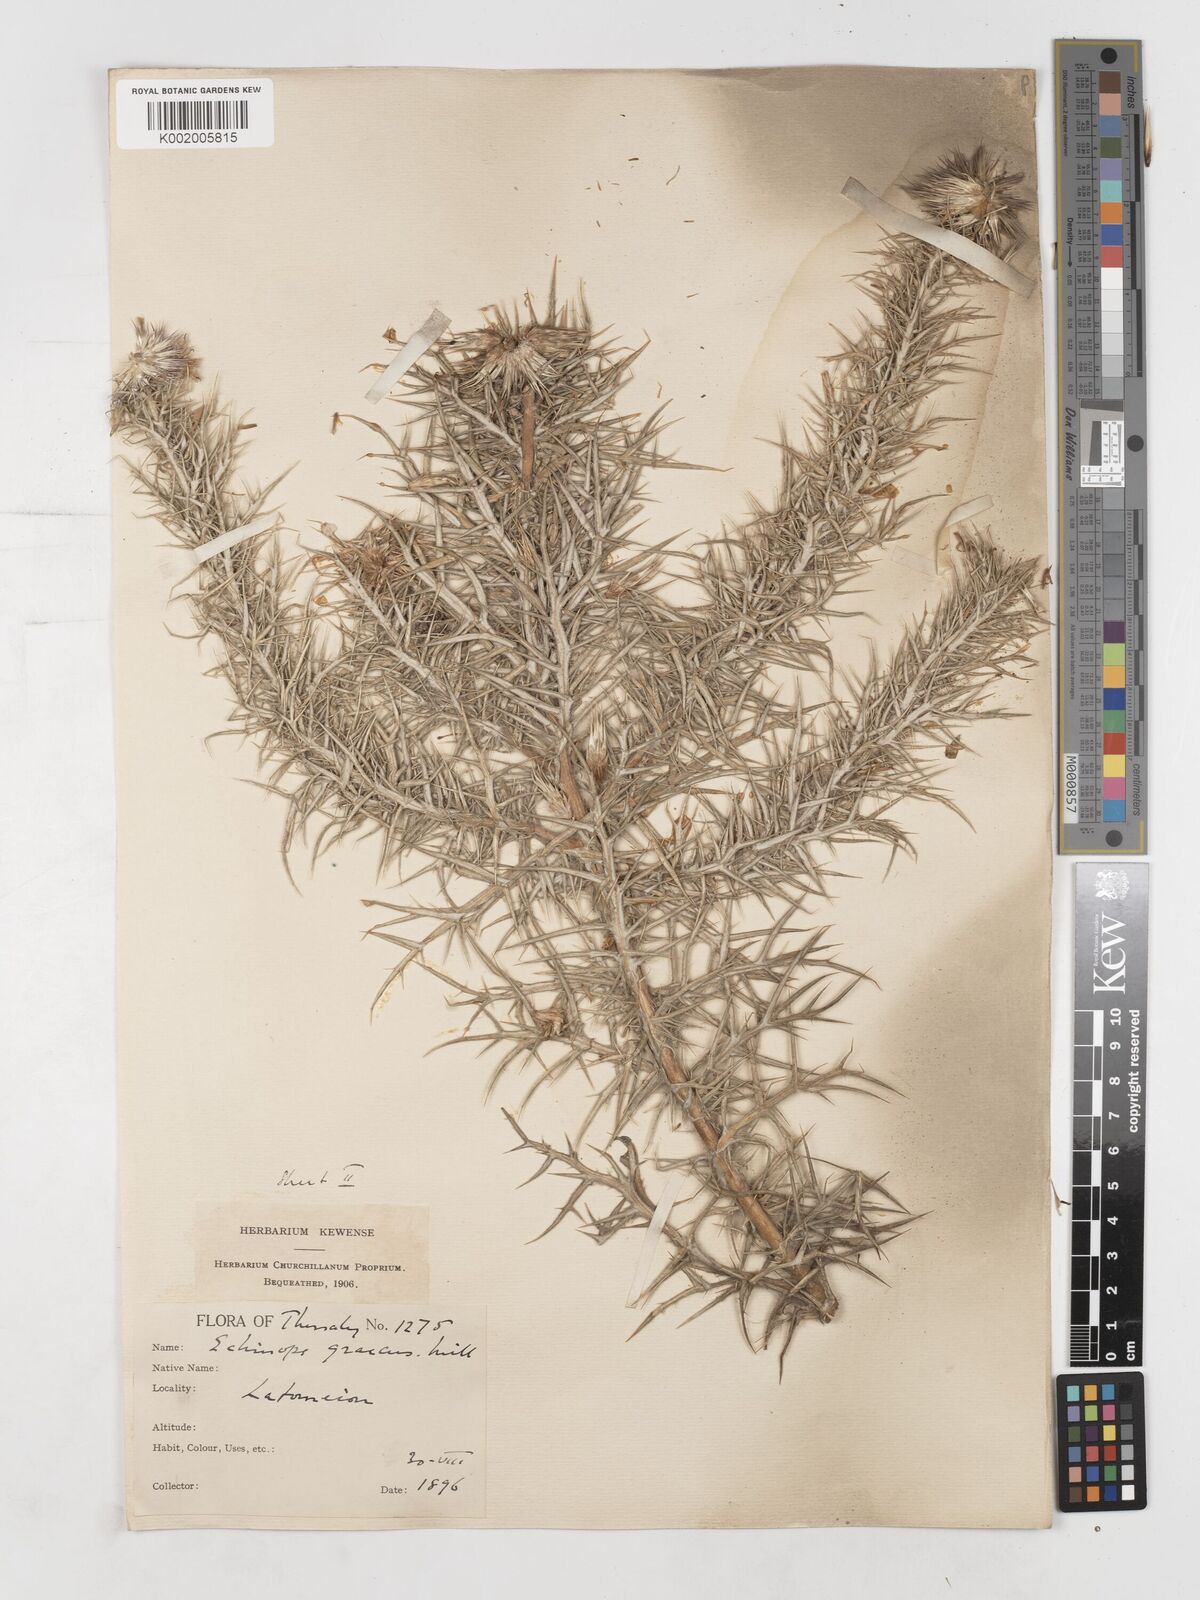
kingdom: Plantae
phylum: Tracheophyta
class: Magnoliopsida
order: Asterales
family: Asteraceae
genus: Echinops
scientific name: Echinops graecus
